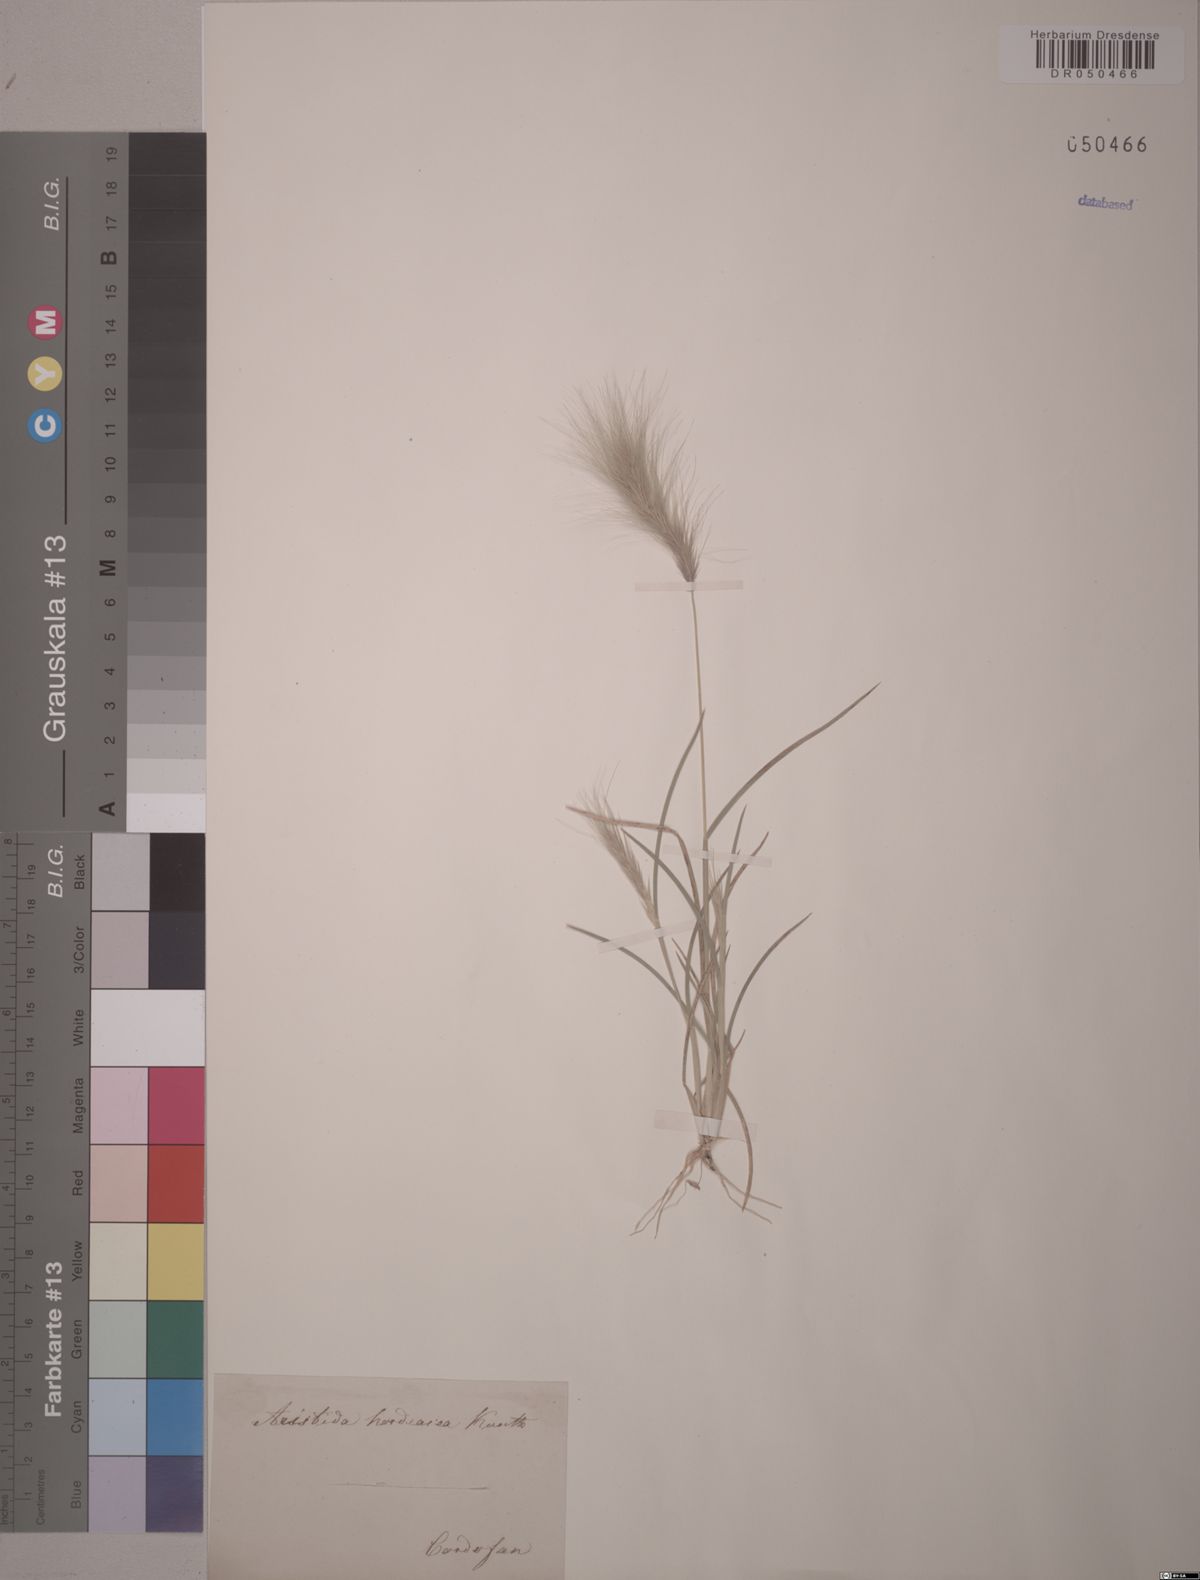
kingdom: Plantae
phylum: Tracheophyta
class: Liliopsida
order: Poales
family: Poaceae
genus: Aristida
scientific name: Aristida hordeacea
